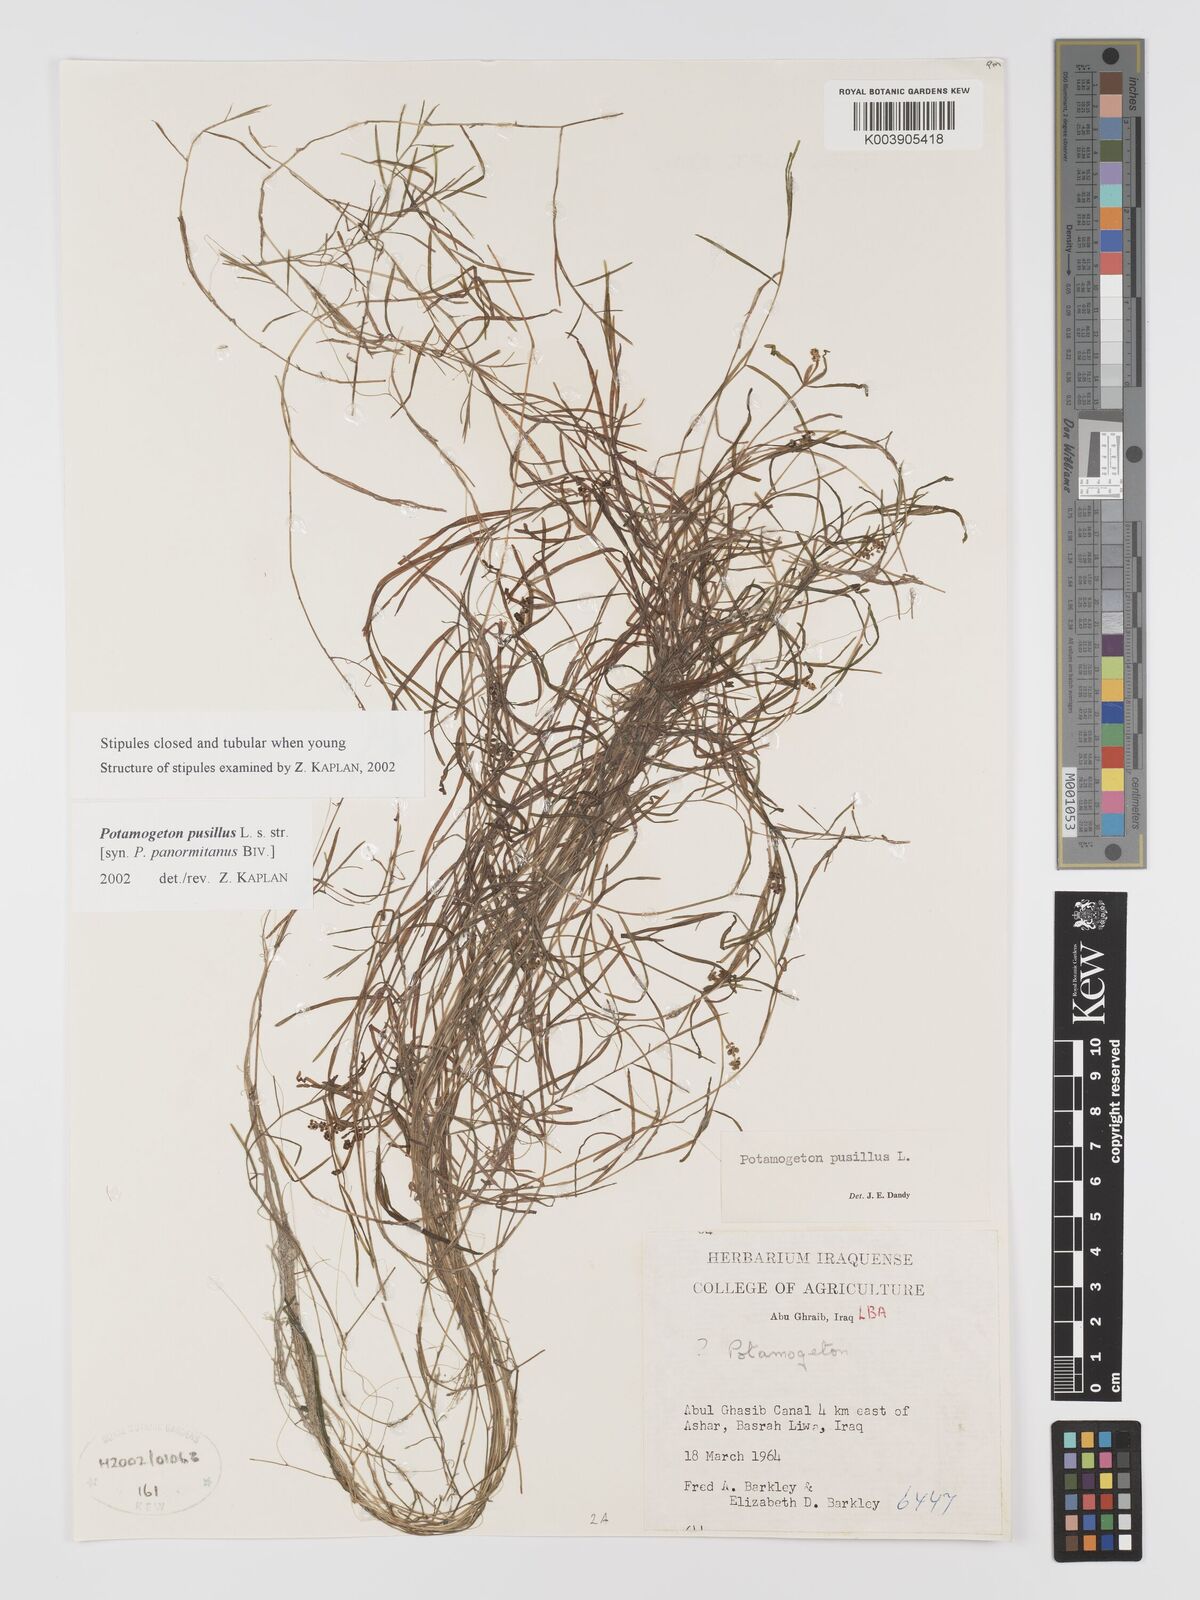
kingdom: Plantae
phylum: Tracheophyta
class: Liliopsida
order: Alismatales
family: Potamogetonaceae
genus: Potamogeton
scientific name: Potamogeton pusillus
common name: Lesser pondweed
